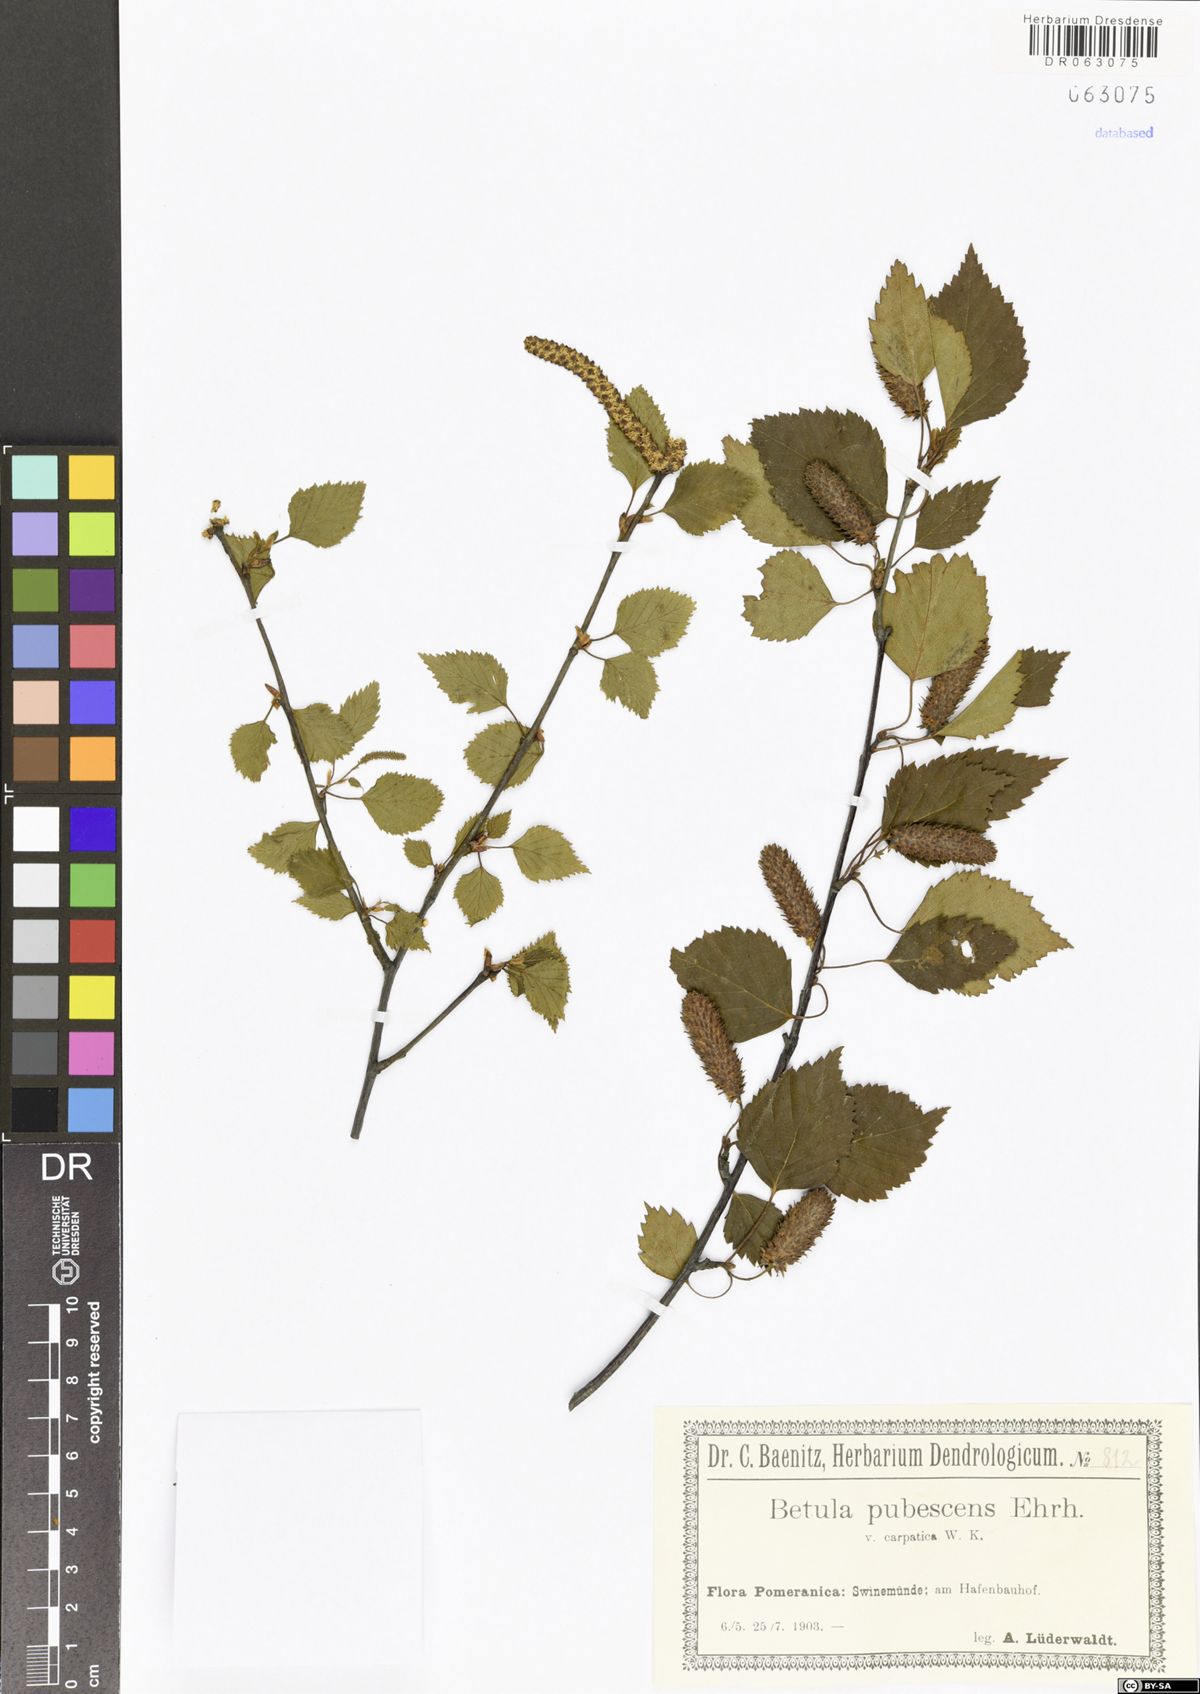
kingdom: Plantae
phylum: Tracheophyta
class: Magnoliopsida
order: Fagales
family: Betulaceae
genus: Betula
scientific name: Betula pubescens
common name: Downy birch
